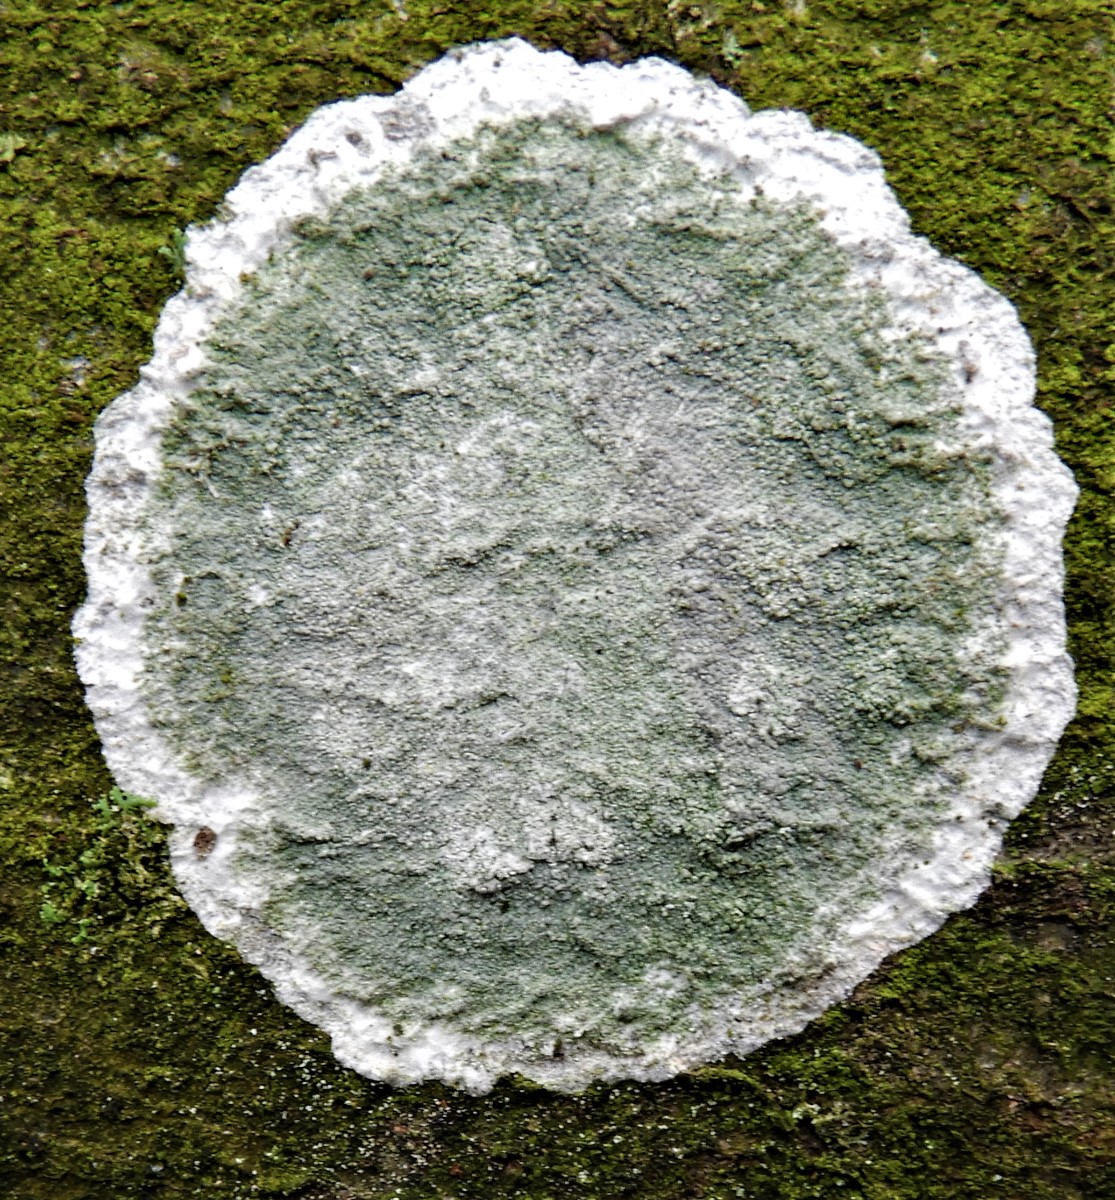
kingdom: Fungi
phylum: Ascomycota
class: Lecanoromycetes
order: Lecanorales
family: Haematommataceae
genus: Haematomma
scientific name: Haematomma ochroleucum
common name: gul trådkantlav
